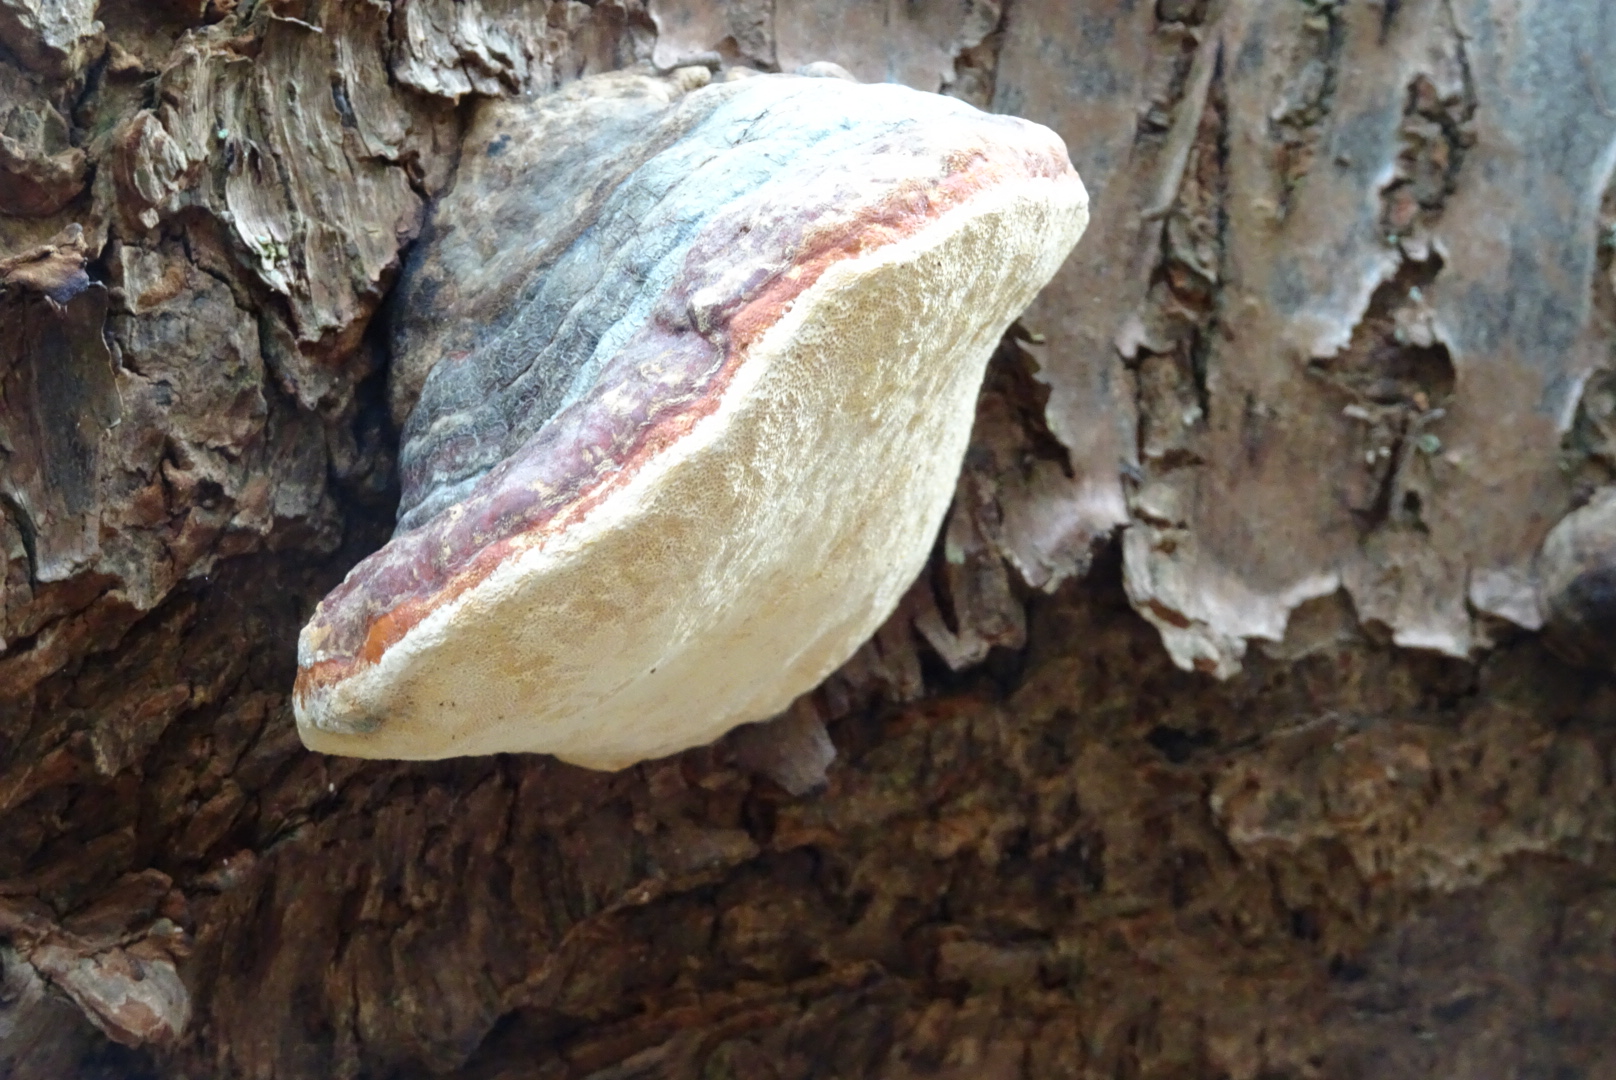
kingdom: Fungi
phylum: Basidiomycota
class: Agaricomycetes
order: Polyporales
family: Fomitopsidaceae
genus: Fomitopsis
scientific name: Fomitopsis pinicola
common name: randbæltet hovporesvamp
